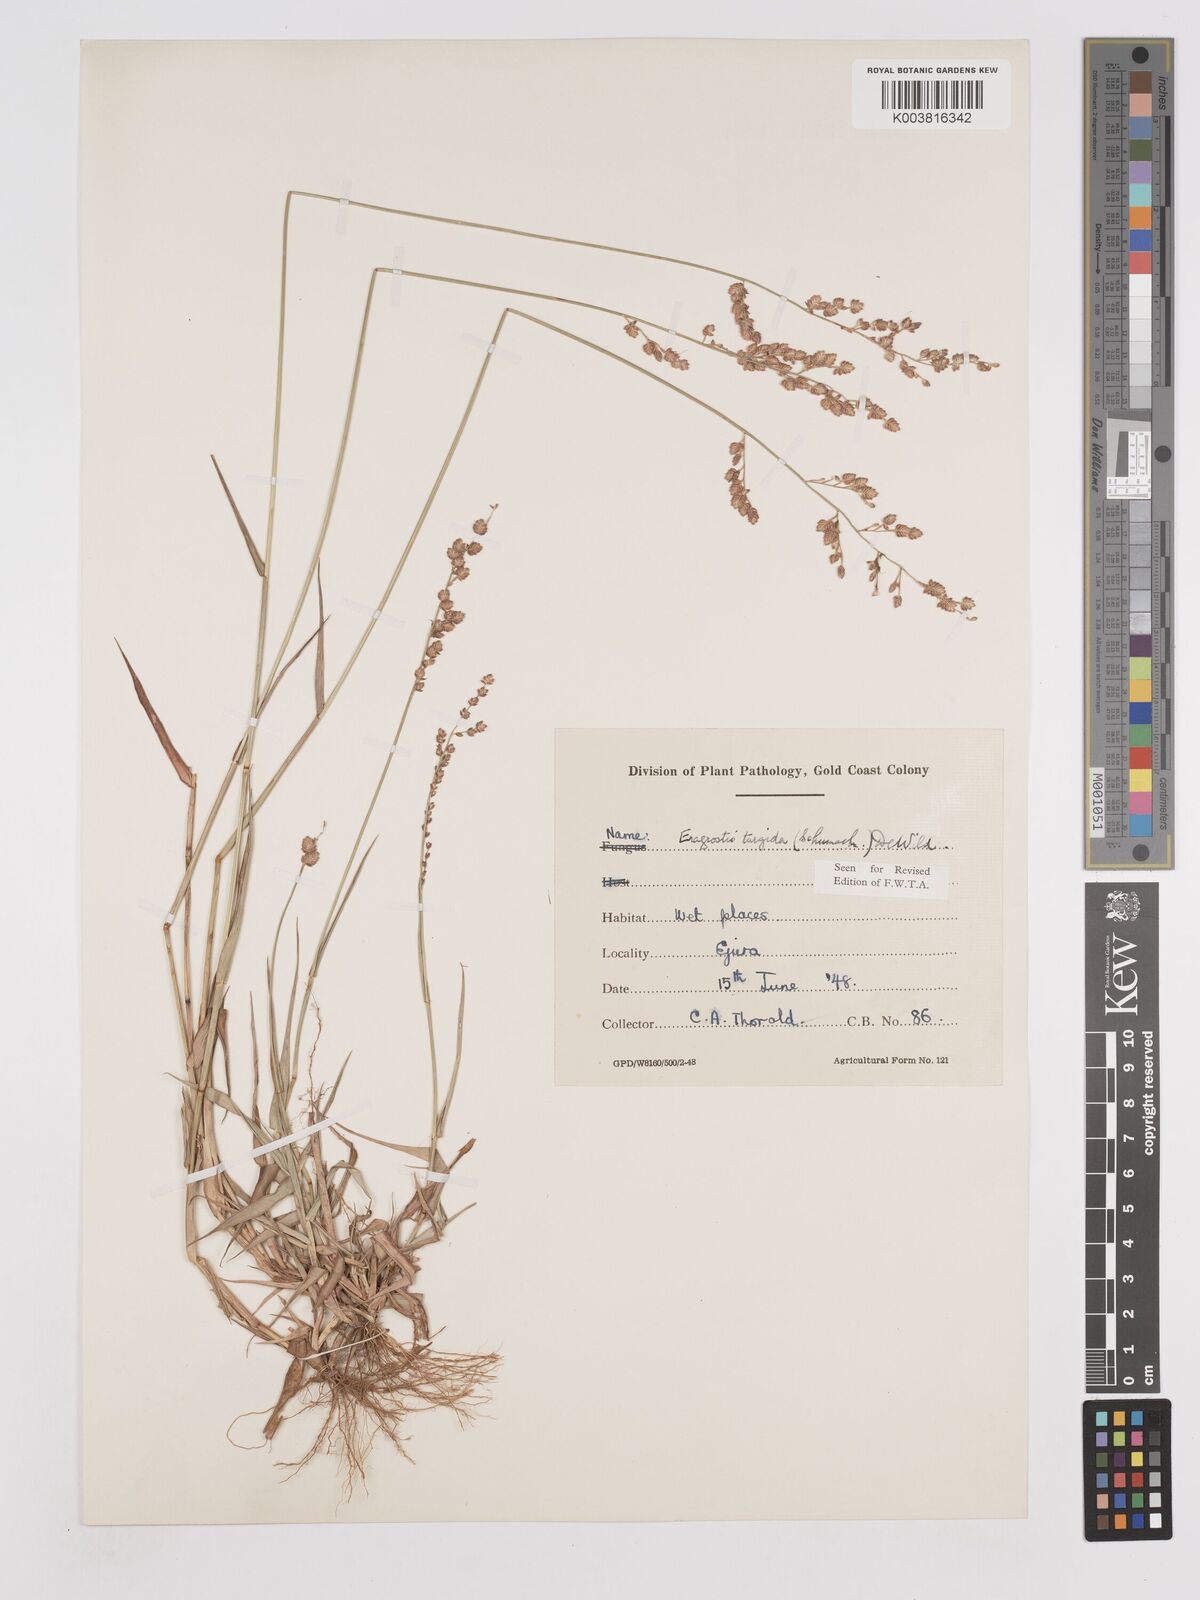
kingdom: Plantae
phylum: Tracheophyta
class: Liliopsida
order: Poales
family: Poaceae
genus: Eragrostis
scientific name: Eragrostis turgida
